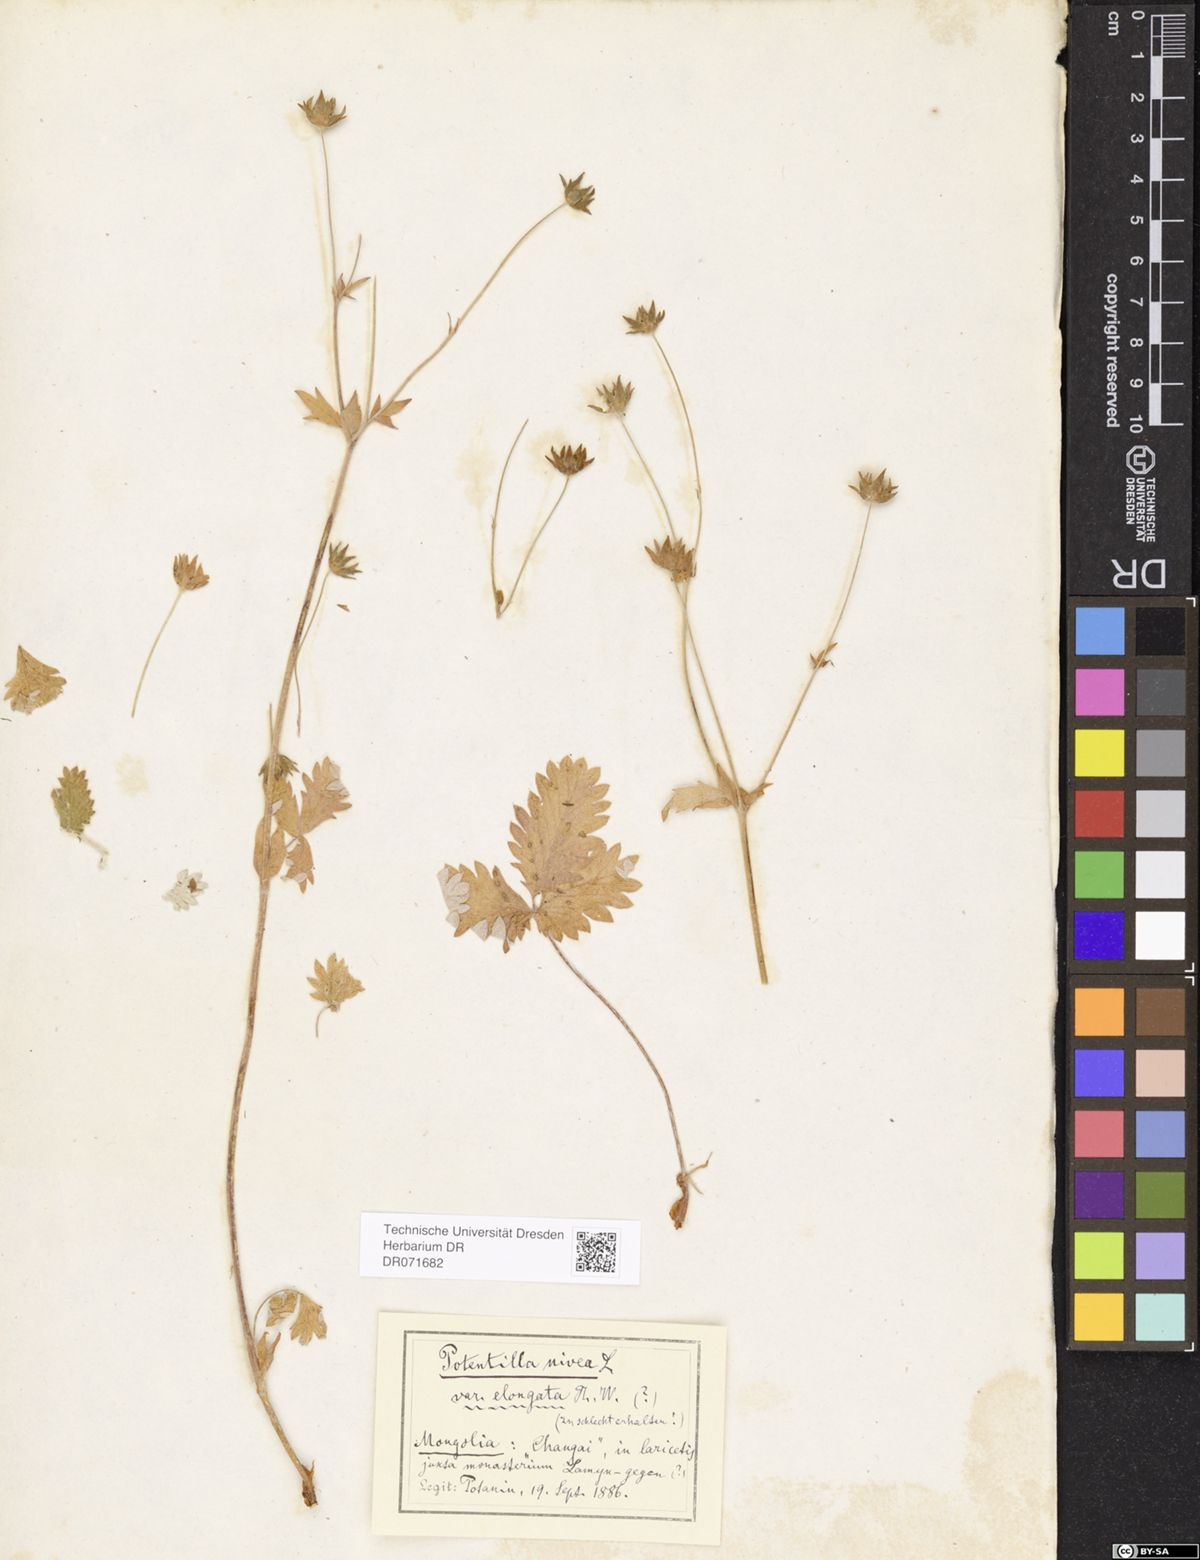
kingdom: Plantae
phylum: Tracheophyta
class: Magnoliopsida
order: Rosales
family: Rosaceae
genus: Potentilla
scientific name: Potentilla crebridens
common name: Congested cinquefoil
